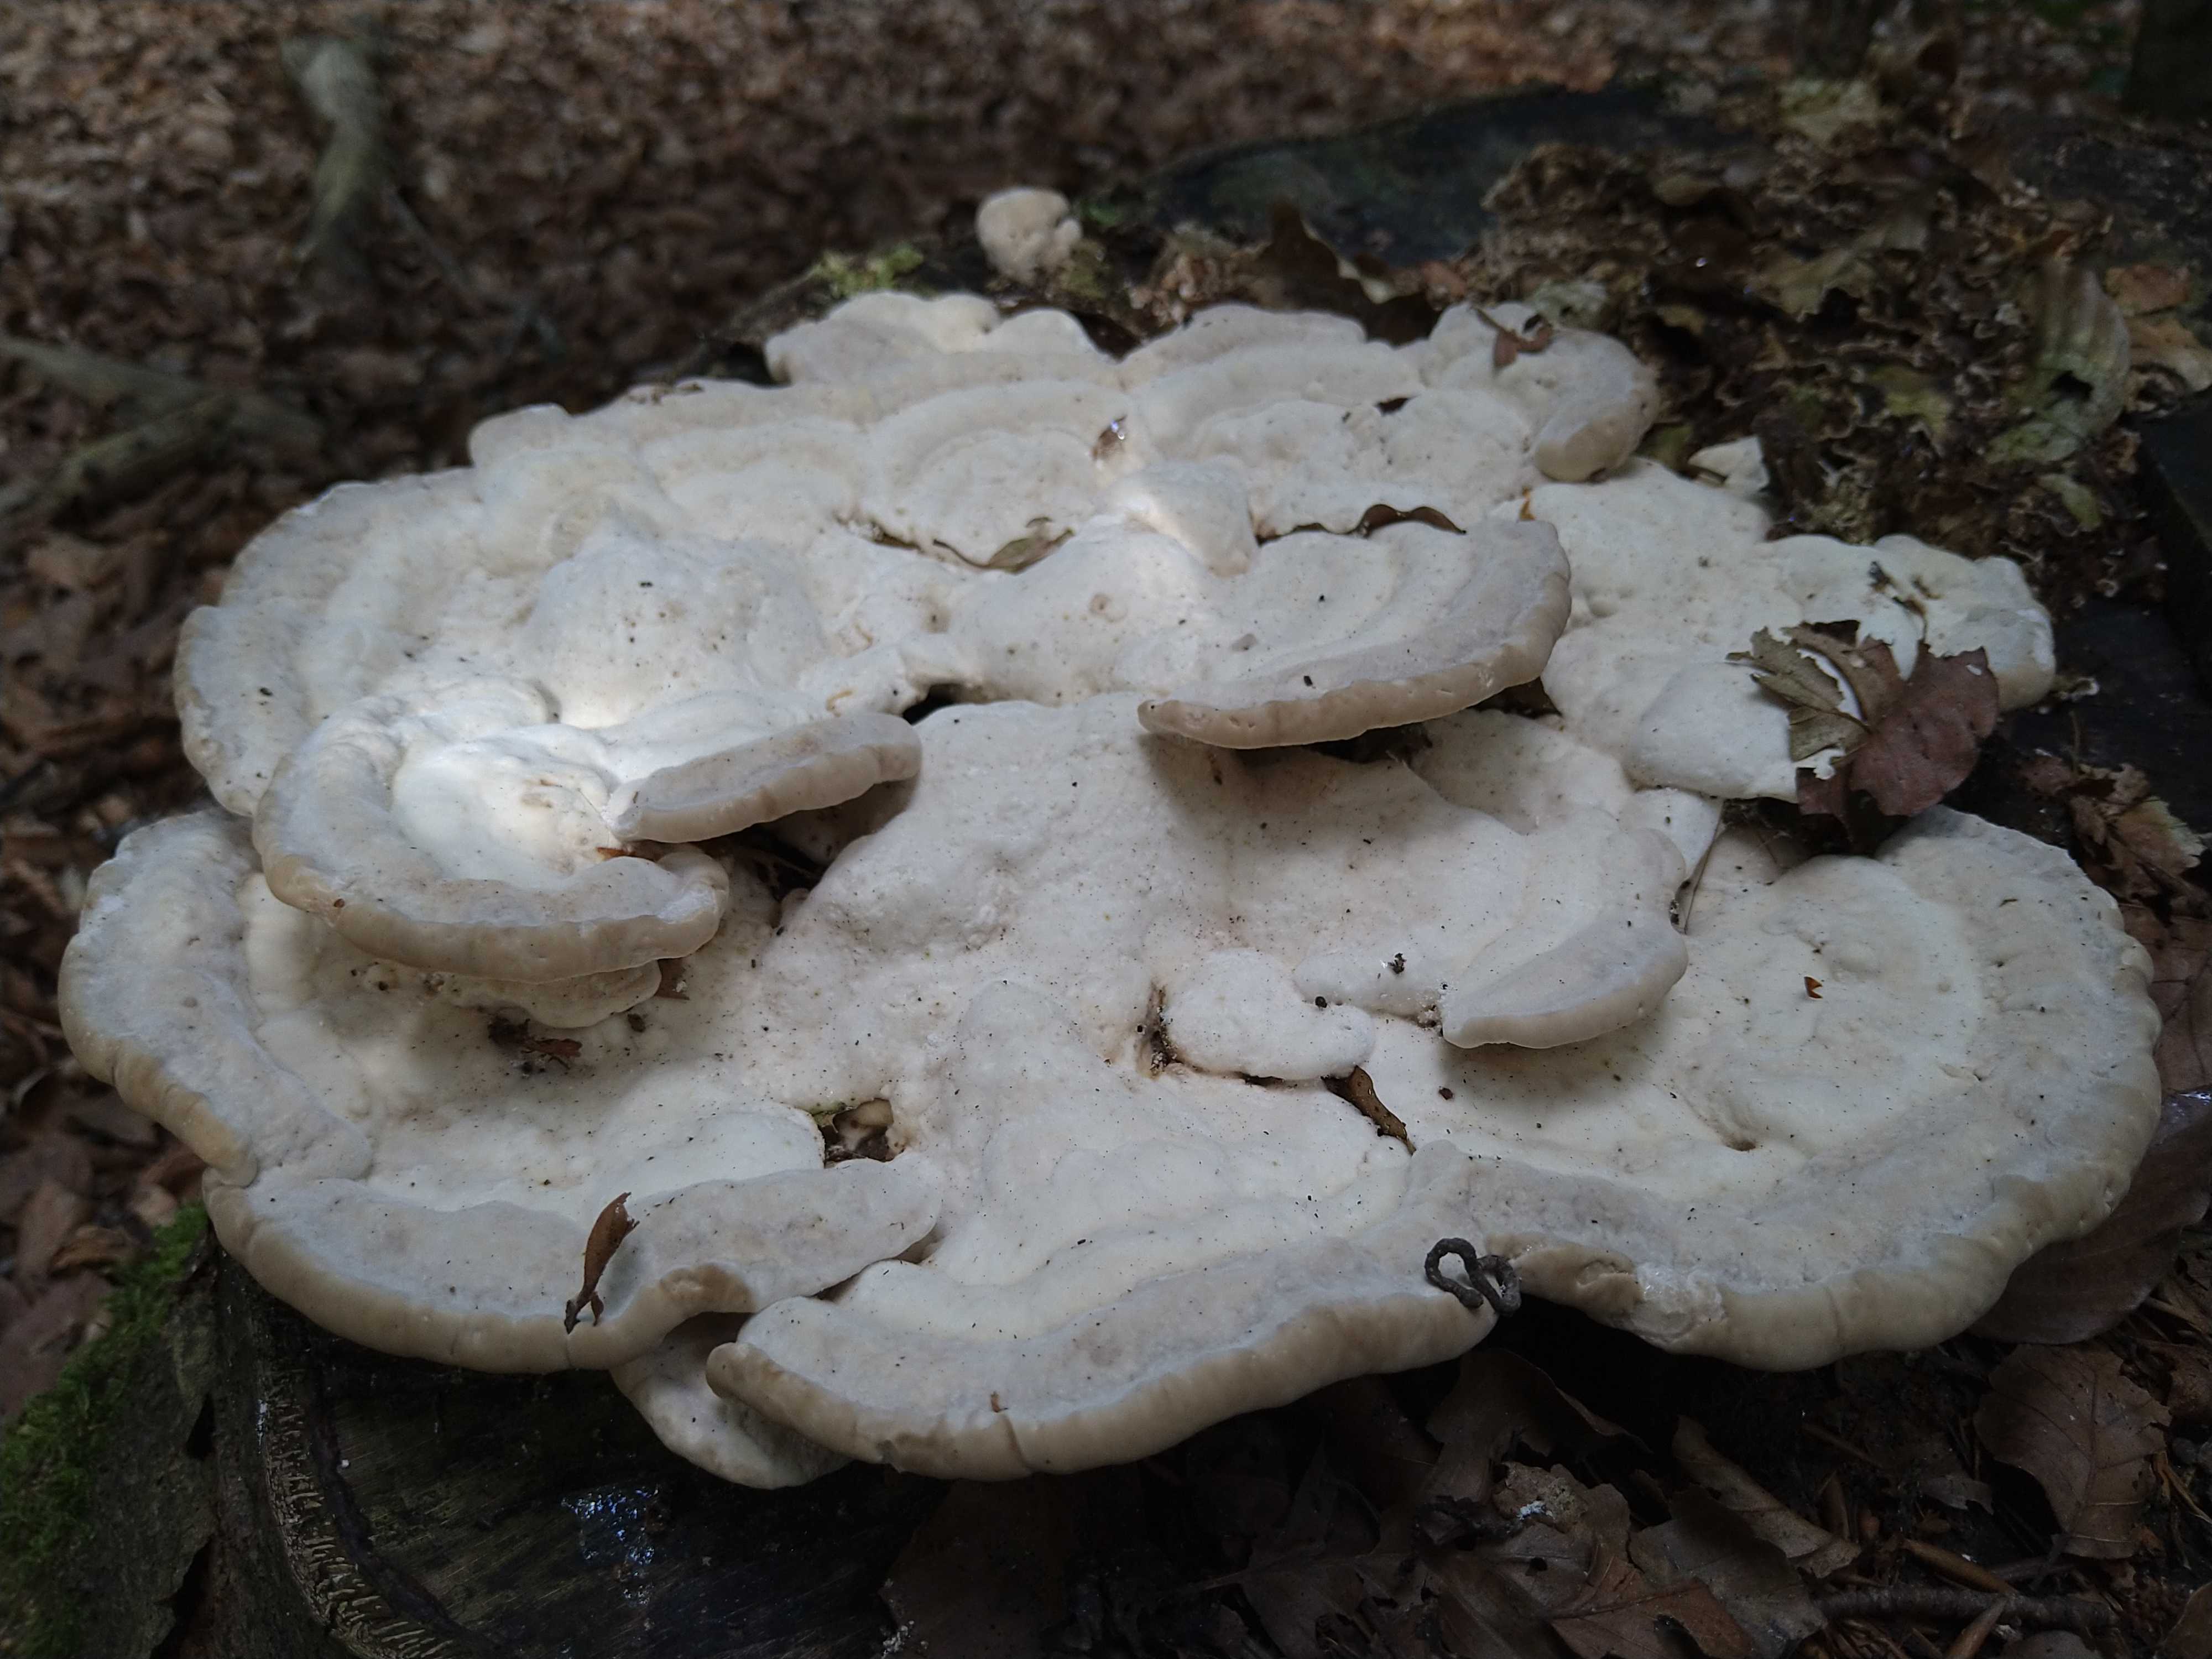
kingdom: Fungi
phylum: Basidiomycota
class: Agaricomycetes
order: Polyporales
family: Polyporaceae
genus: Trametes
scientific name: Trametes gibbosa
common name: puklet læderporesvamp
